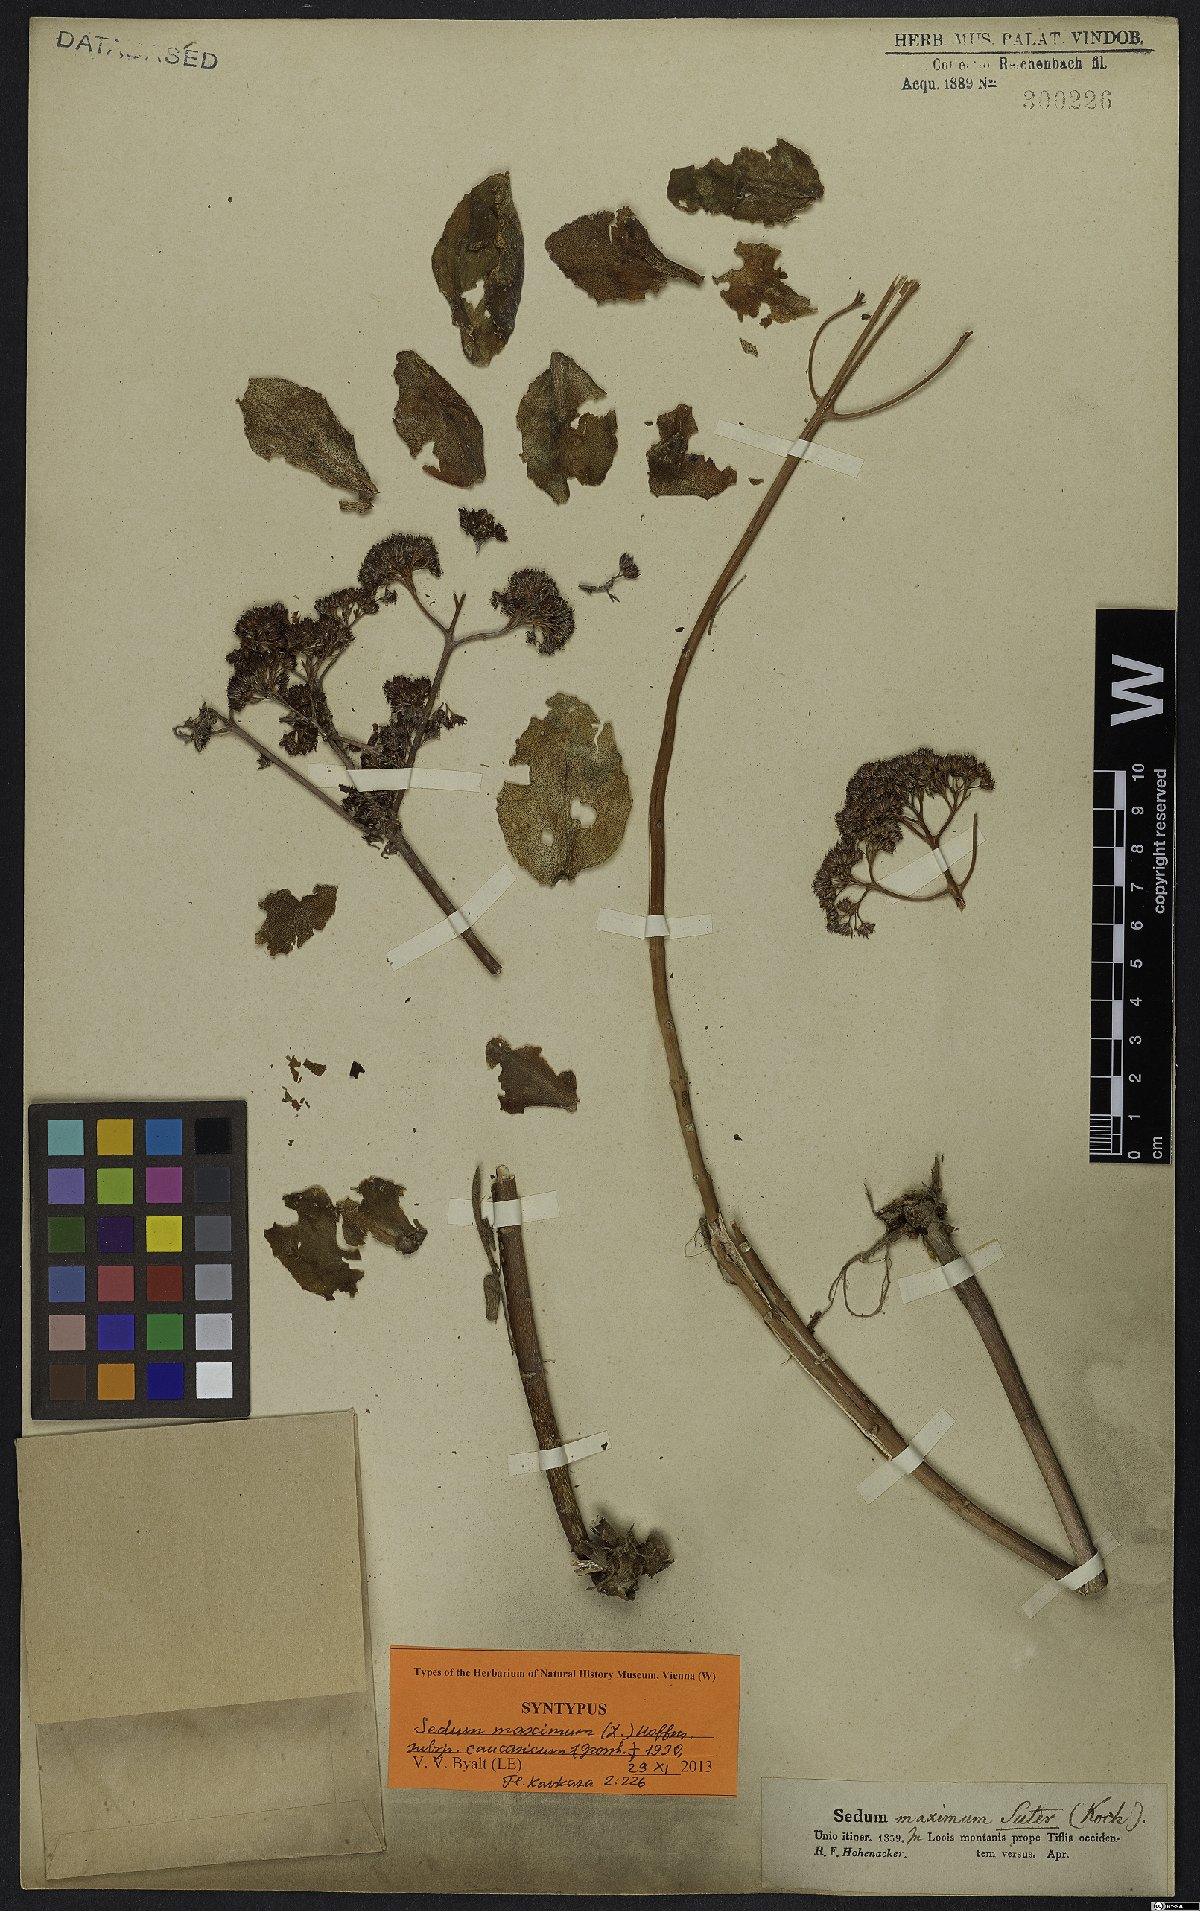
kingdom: Plantae
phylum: Tracheophyta
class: Magnoliopsida
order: Saxifragales
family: Crassulaceae
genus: Hylotelephium
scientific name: Hylotelephium maximum
